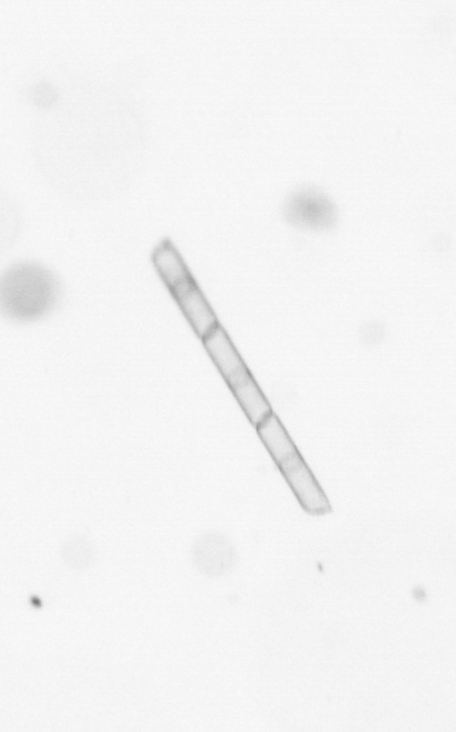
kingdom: Chromista
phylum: Ochrophyta
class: Bacillariophyceae
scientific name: Bacillariophyceae
